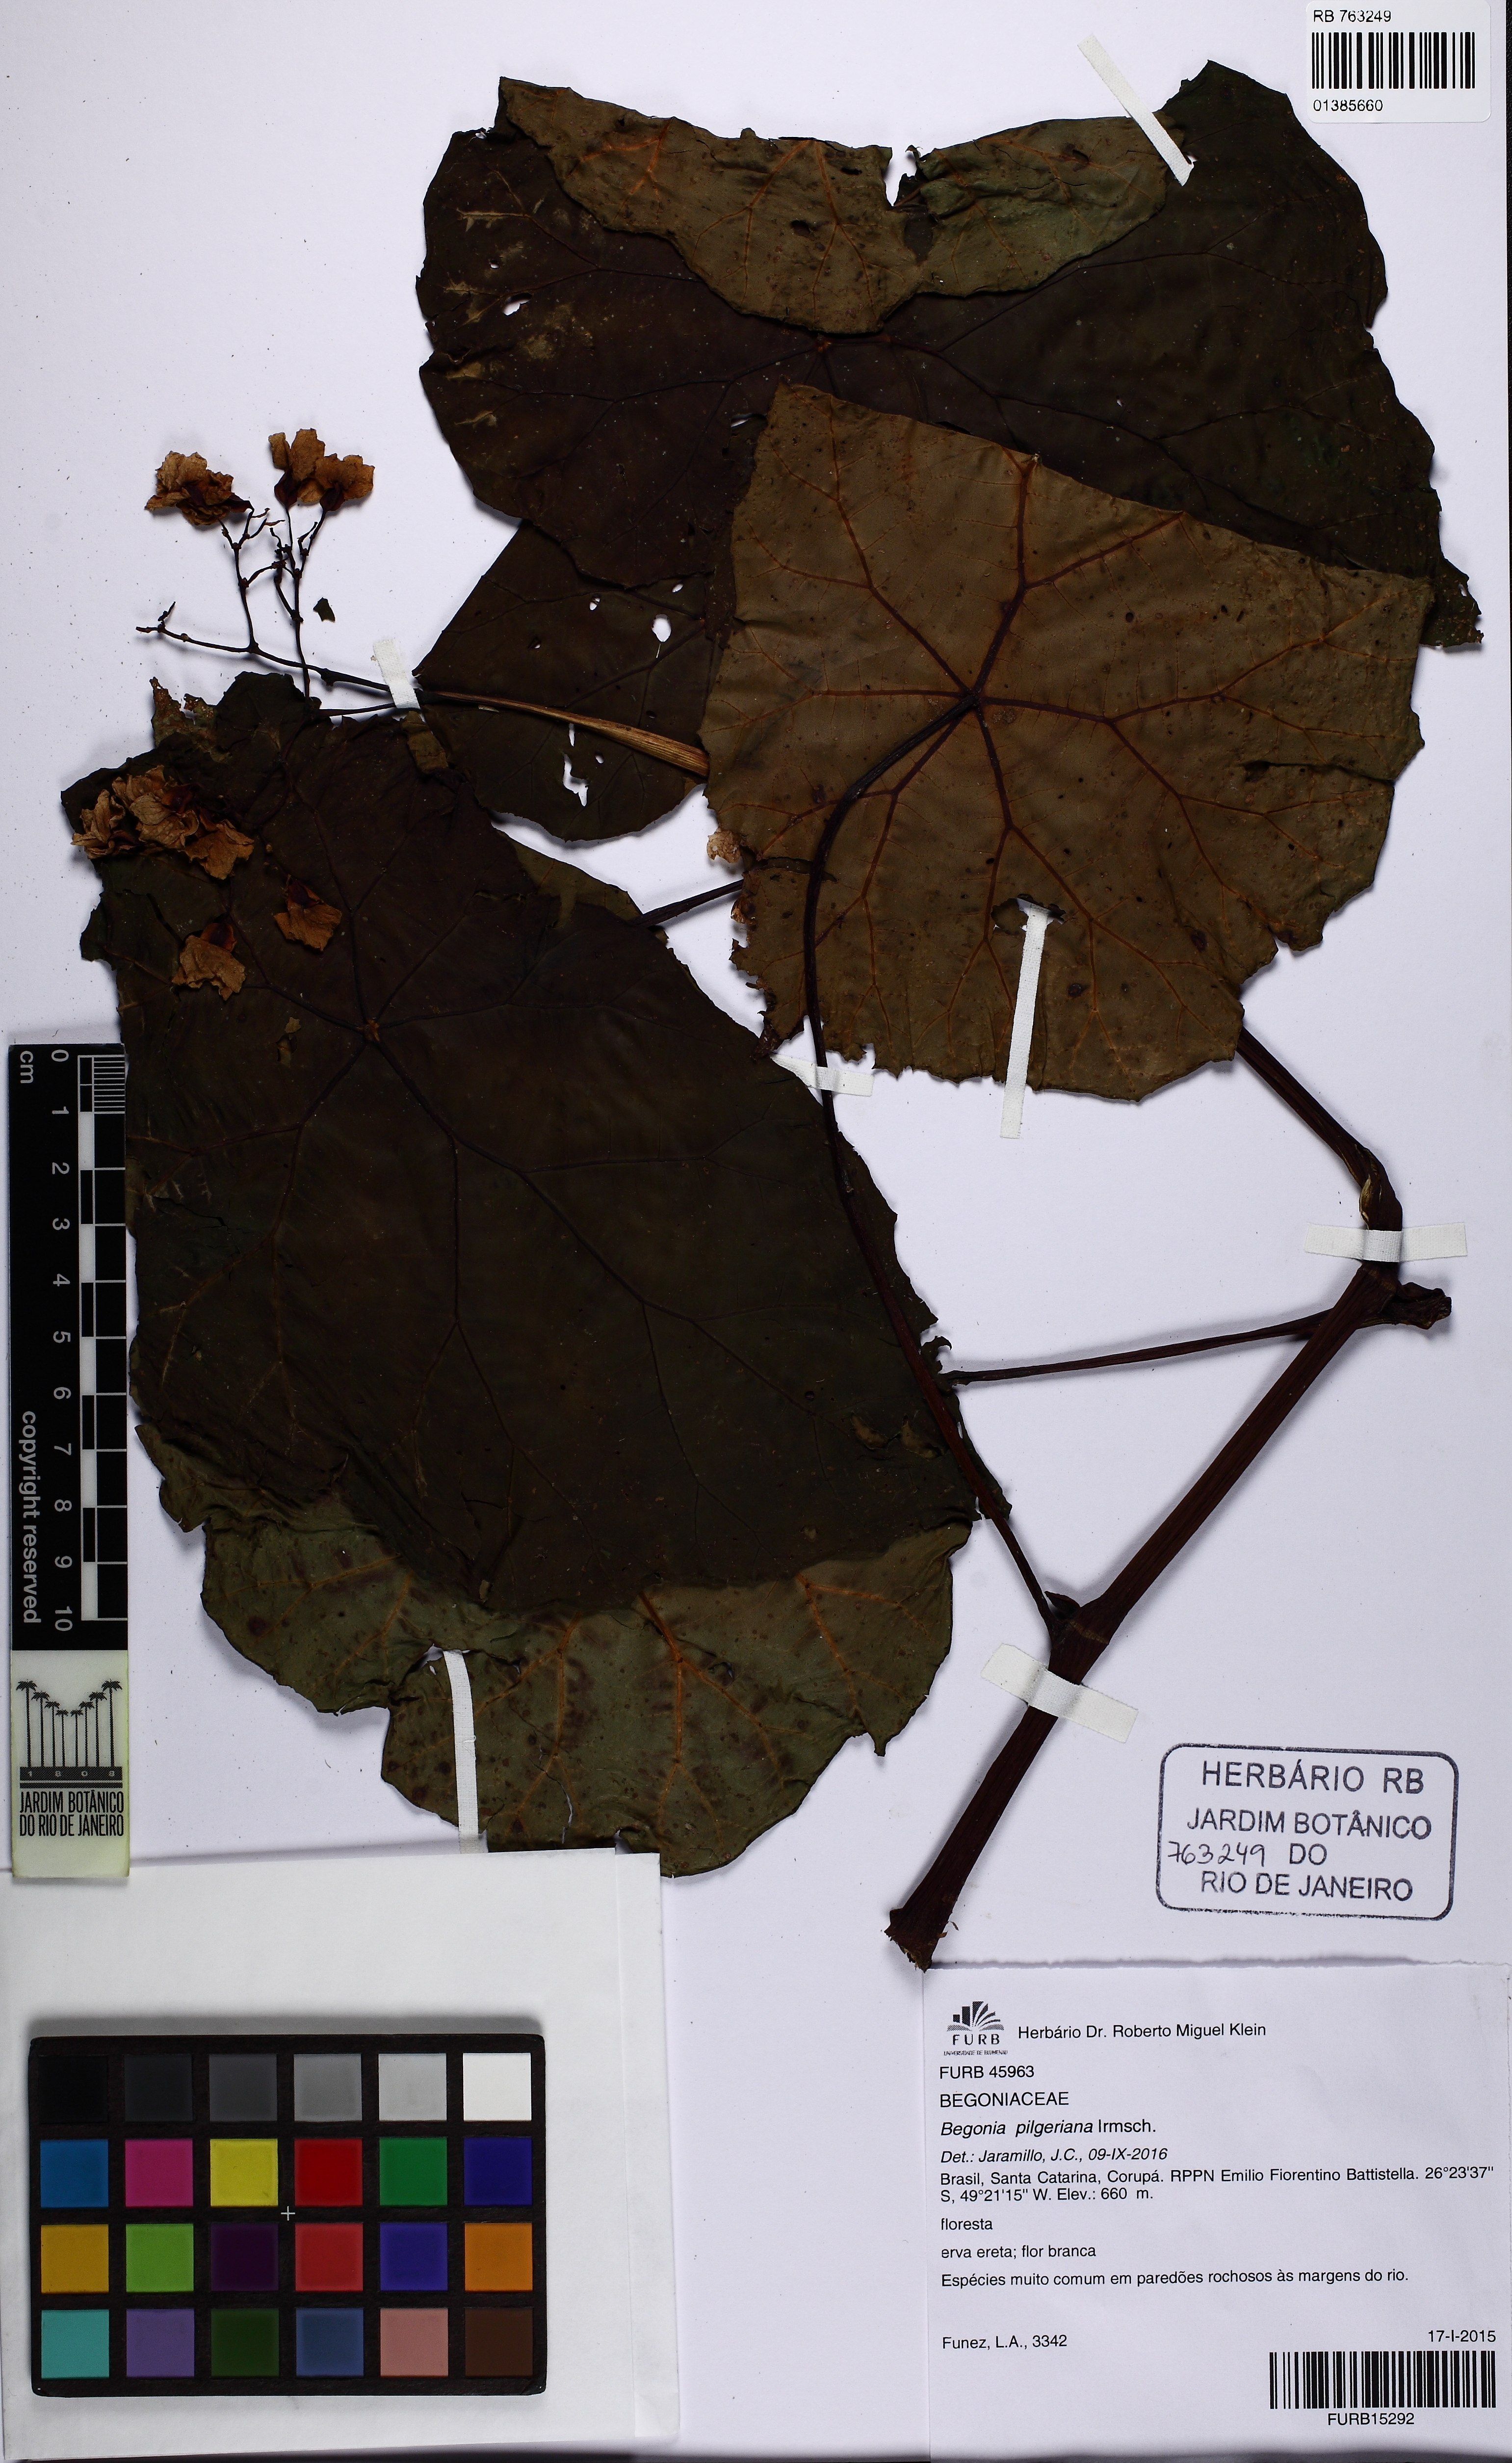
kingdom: Plantae
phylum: Tracheophyta
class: Magnoliopsida
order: Cucurbitales
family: Begoniaceae
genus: Begonia
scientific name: Begonia pilgeriana
